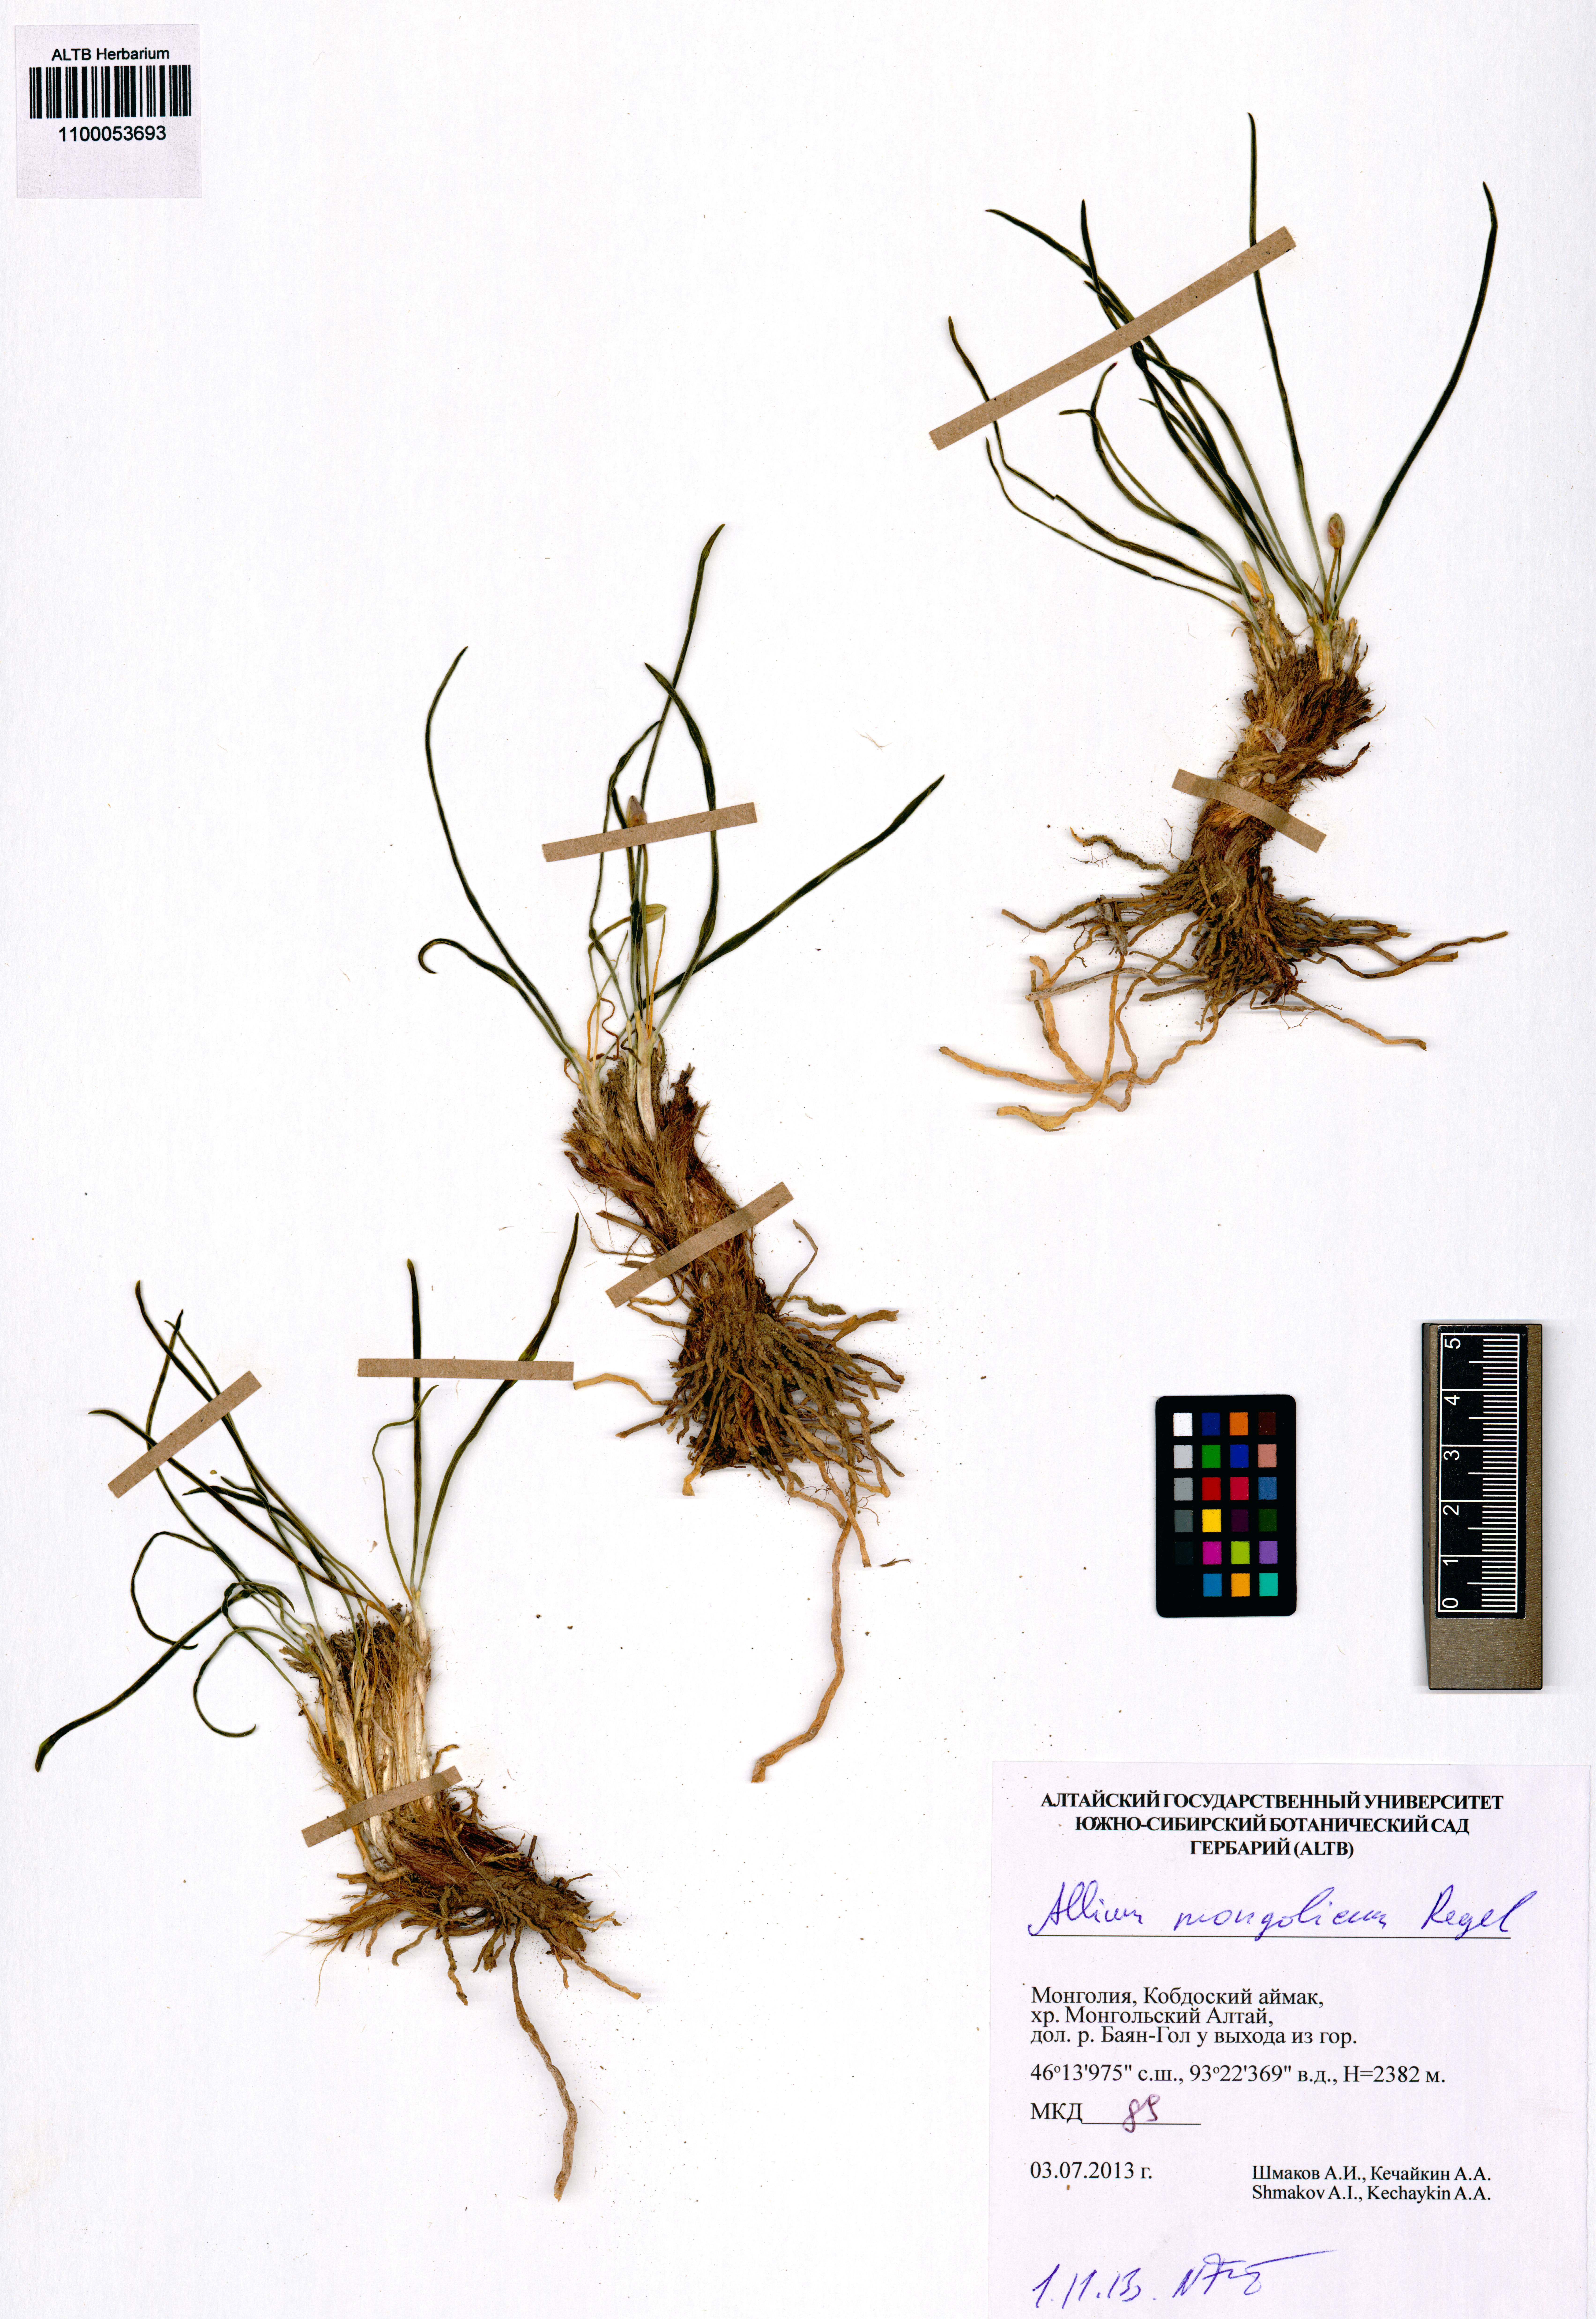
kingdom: Plantae
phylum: Tracheophyta
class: Liliopsida
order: Asparagales
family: Amaryllidaceae
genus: Allium
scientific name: Allium mongolicum
